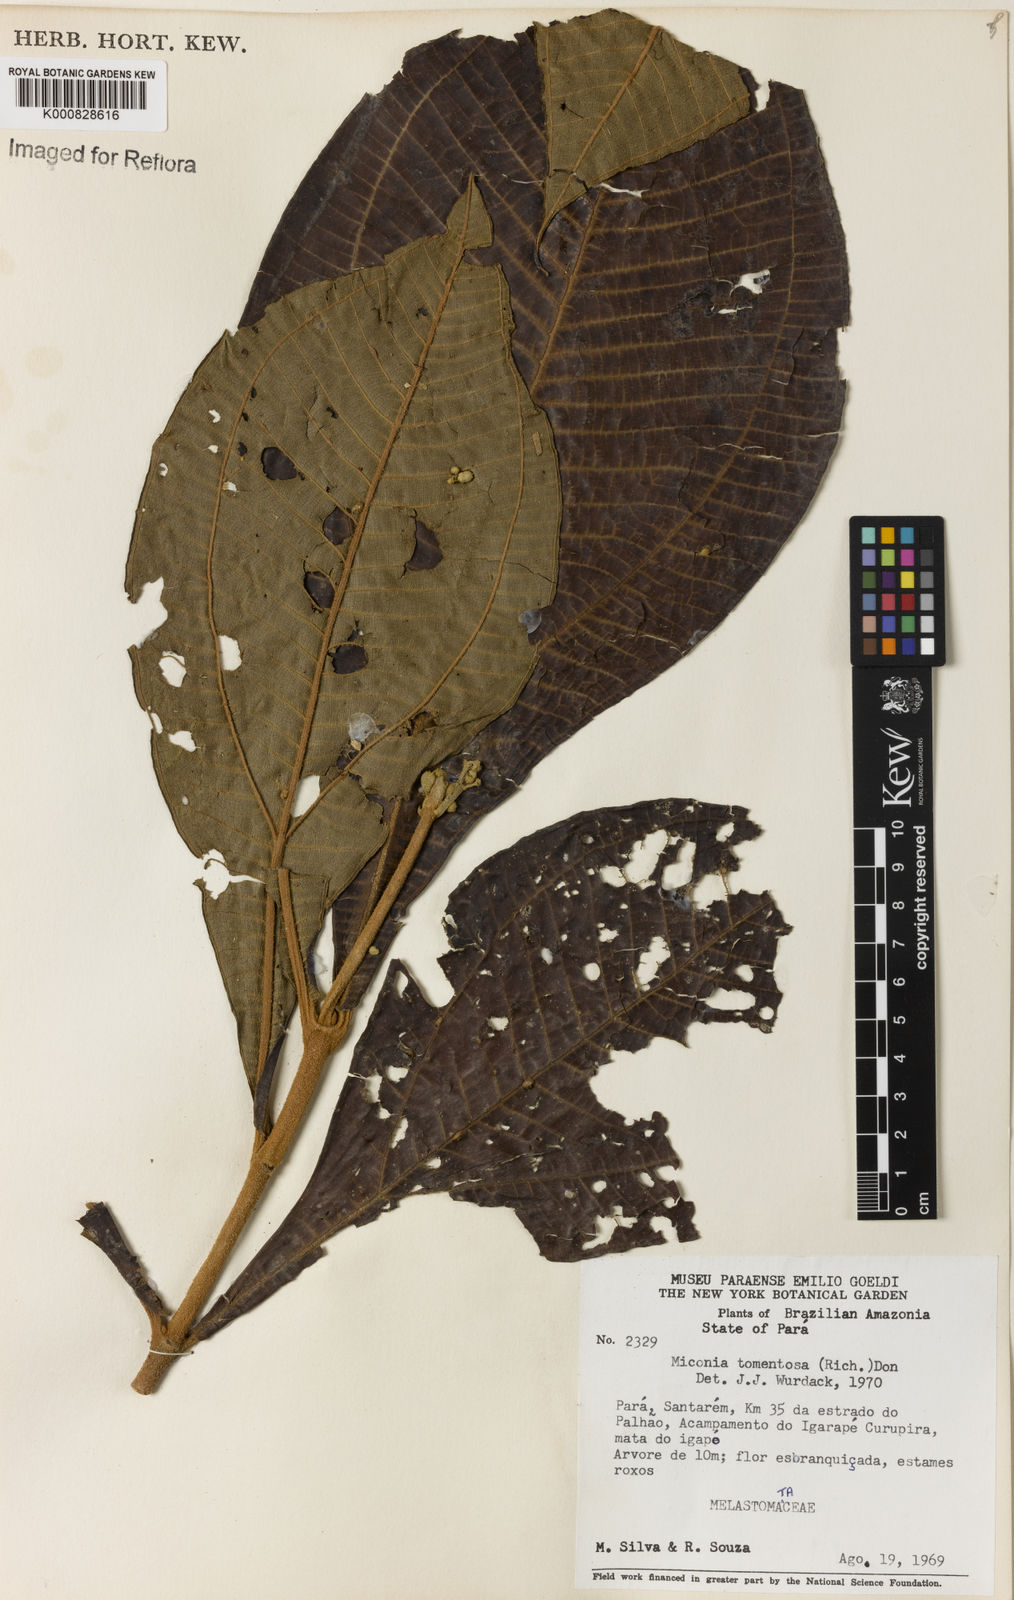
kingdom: Plantae
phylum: Tracheophyta
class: Magnoliopsida
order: Myrtales
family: Melastomataceae
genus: Miconia
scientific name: Miconia tomentosa
